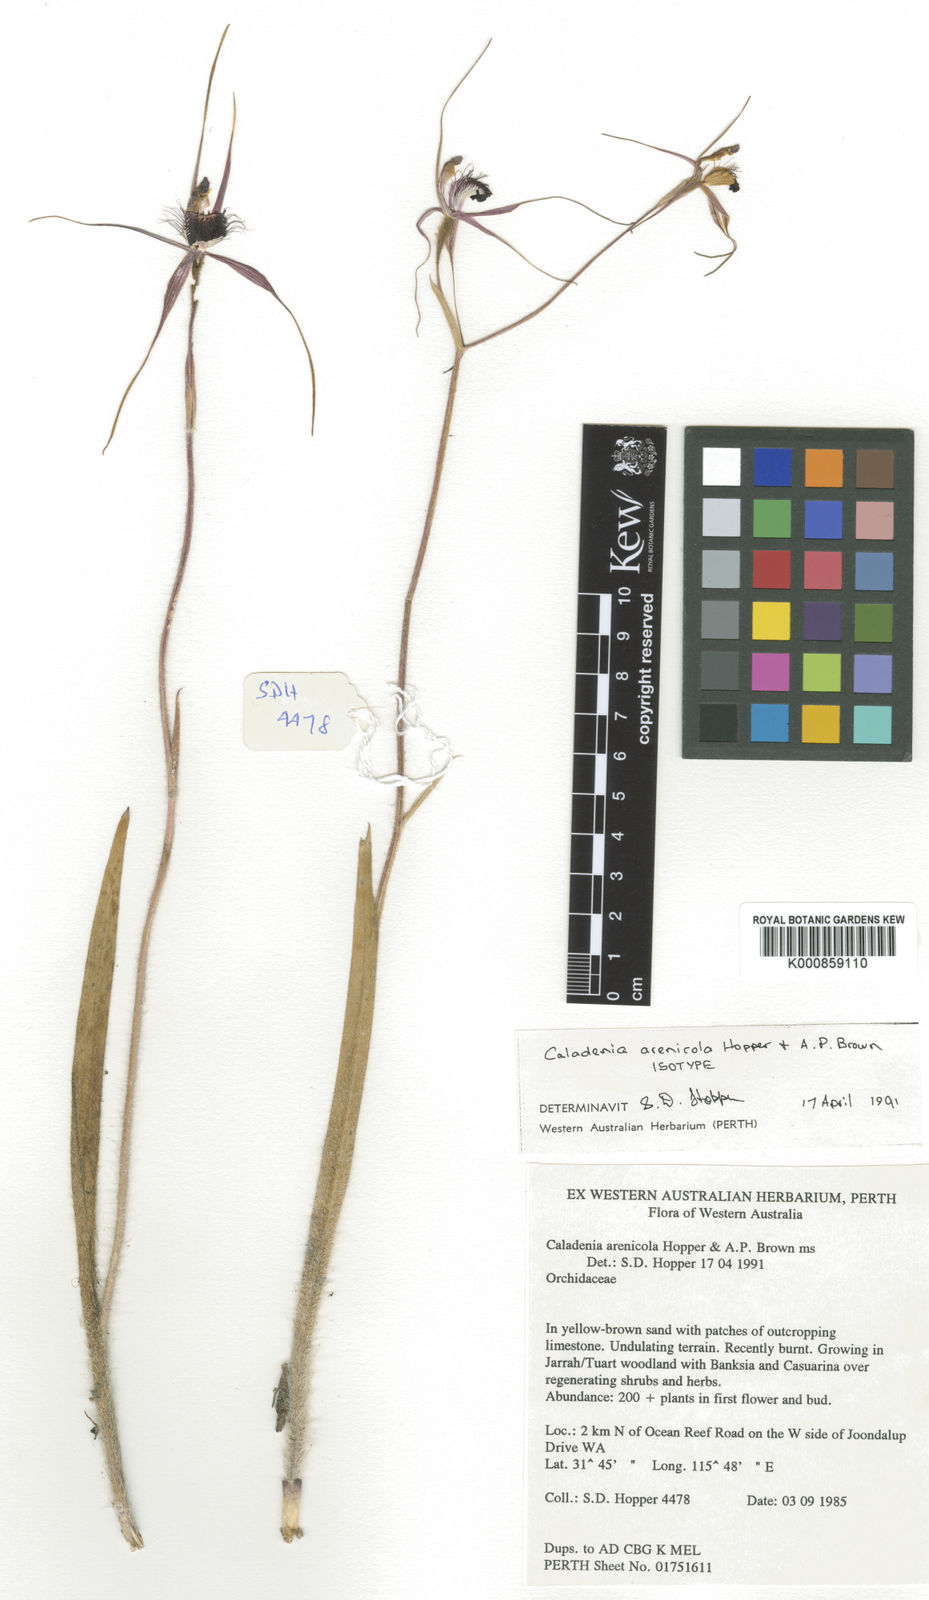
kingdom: Plantae
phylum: Tracheophyta
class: Liliopsida
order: Asparagales
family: Orchidaceae
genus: Caladenia
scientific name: Caladenia arenicola
